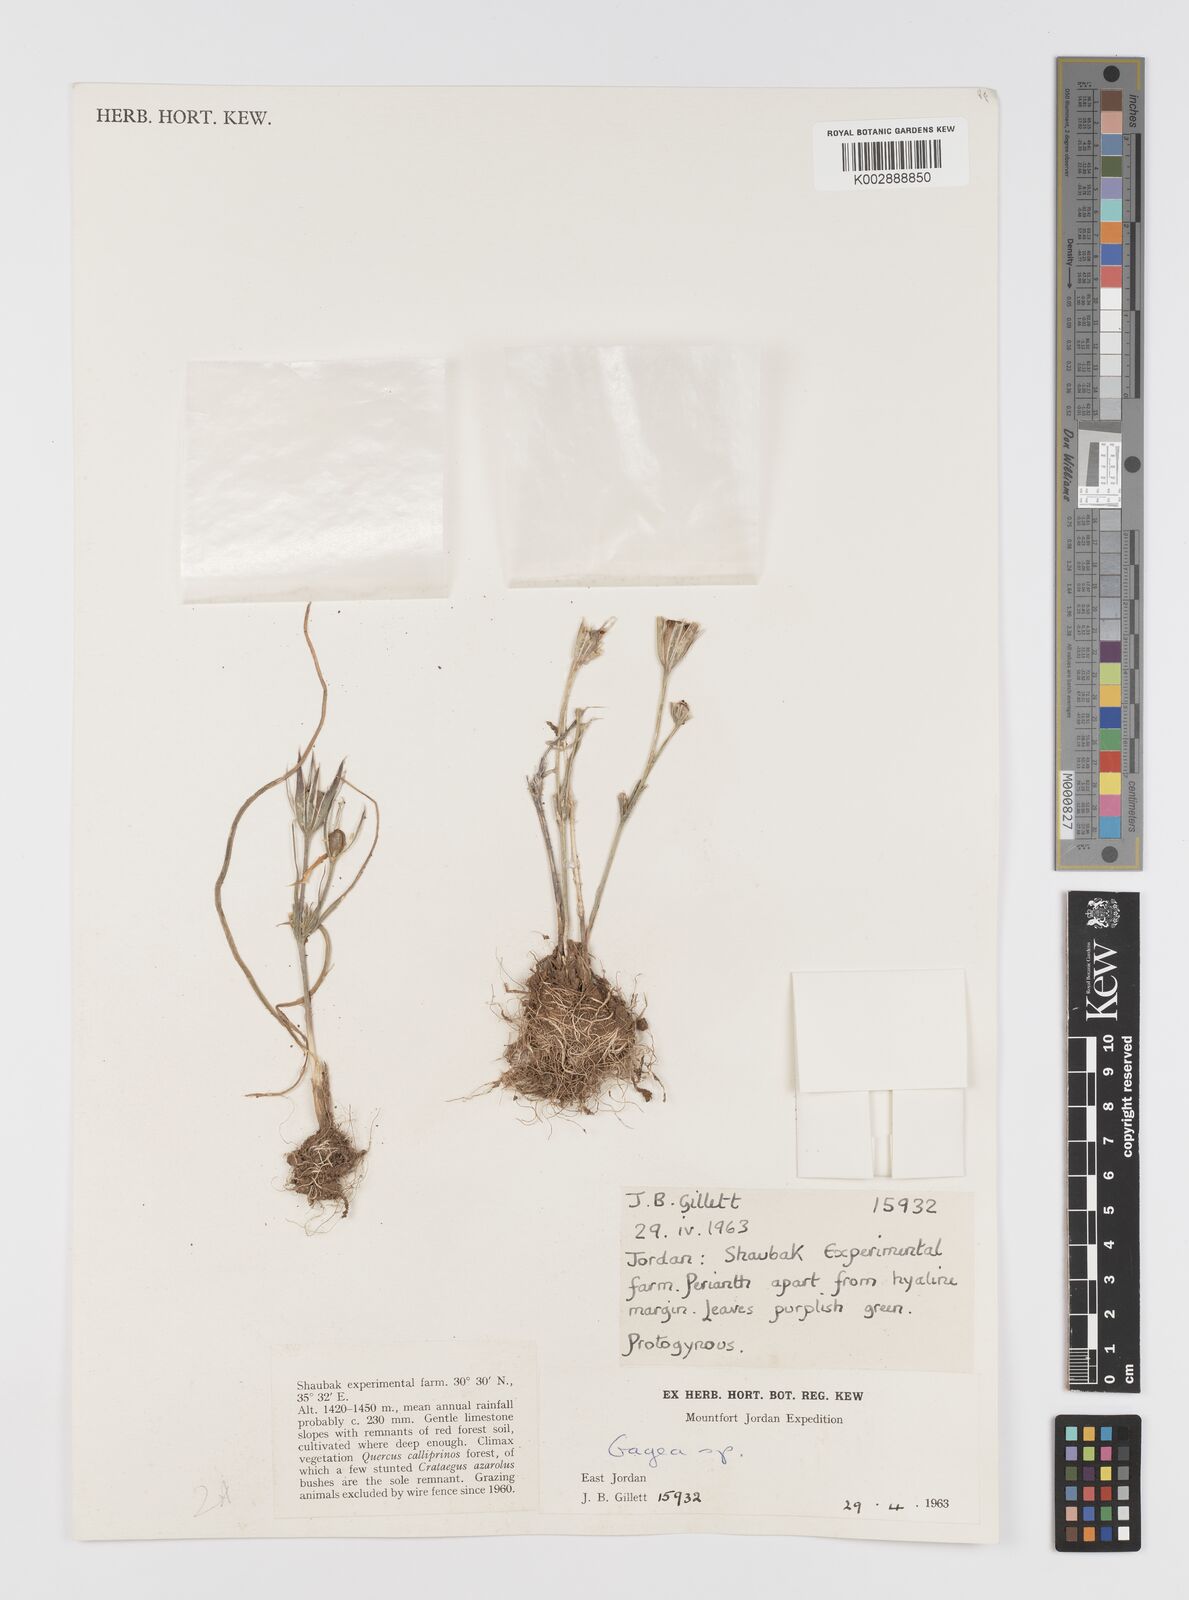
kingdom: Plantae
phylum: Tracheophyta
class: Liliopsida
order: Liliales
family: Liliaceae
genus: Gagea
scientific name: Gagea
